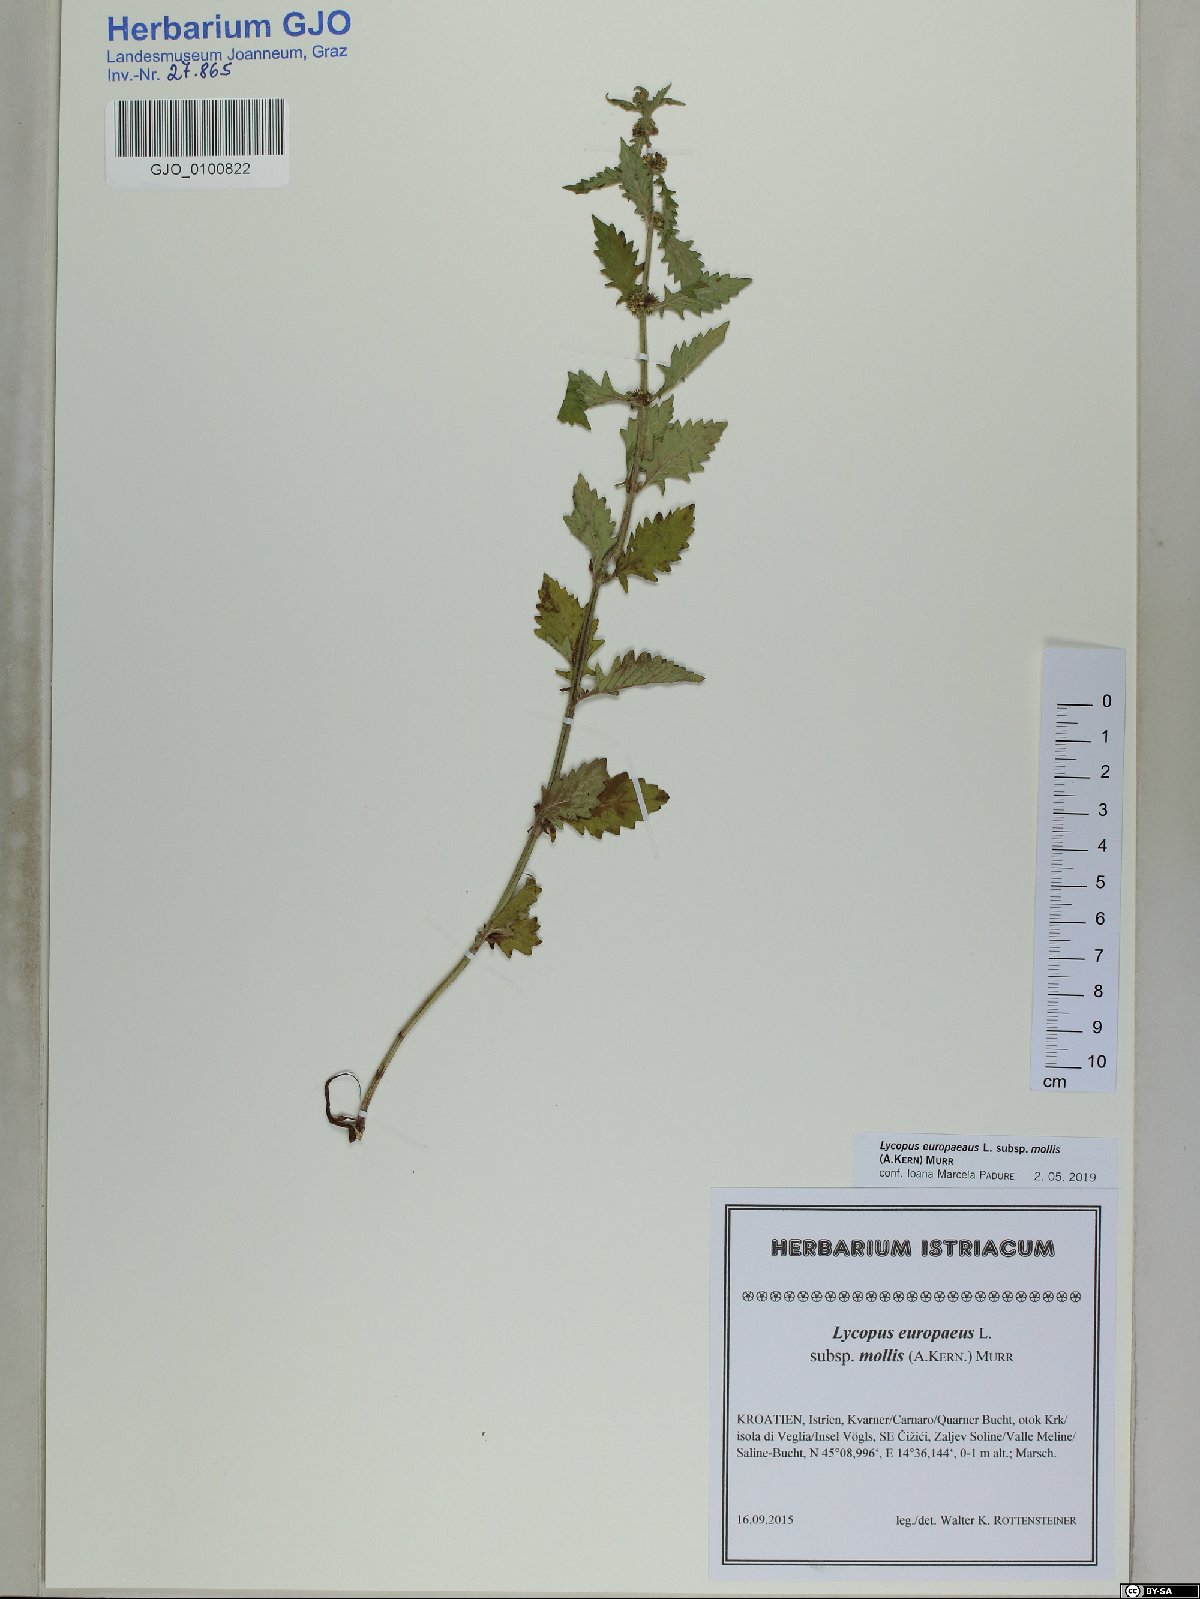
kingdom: Plantae
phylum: Tracheophyta
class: Magnoliopsida
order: Lamiales
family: Lamiaceae
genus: Lycopus
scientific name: Lycopus europaeus
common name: European bugleweed
